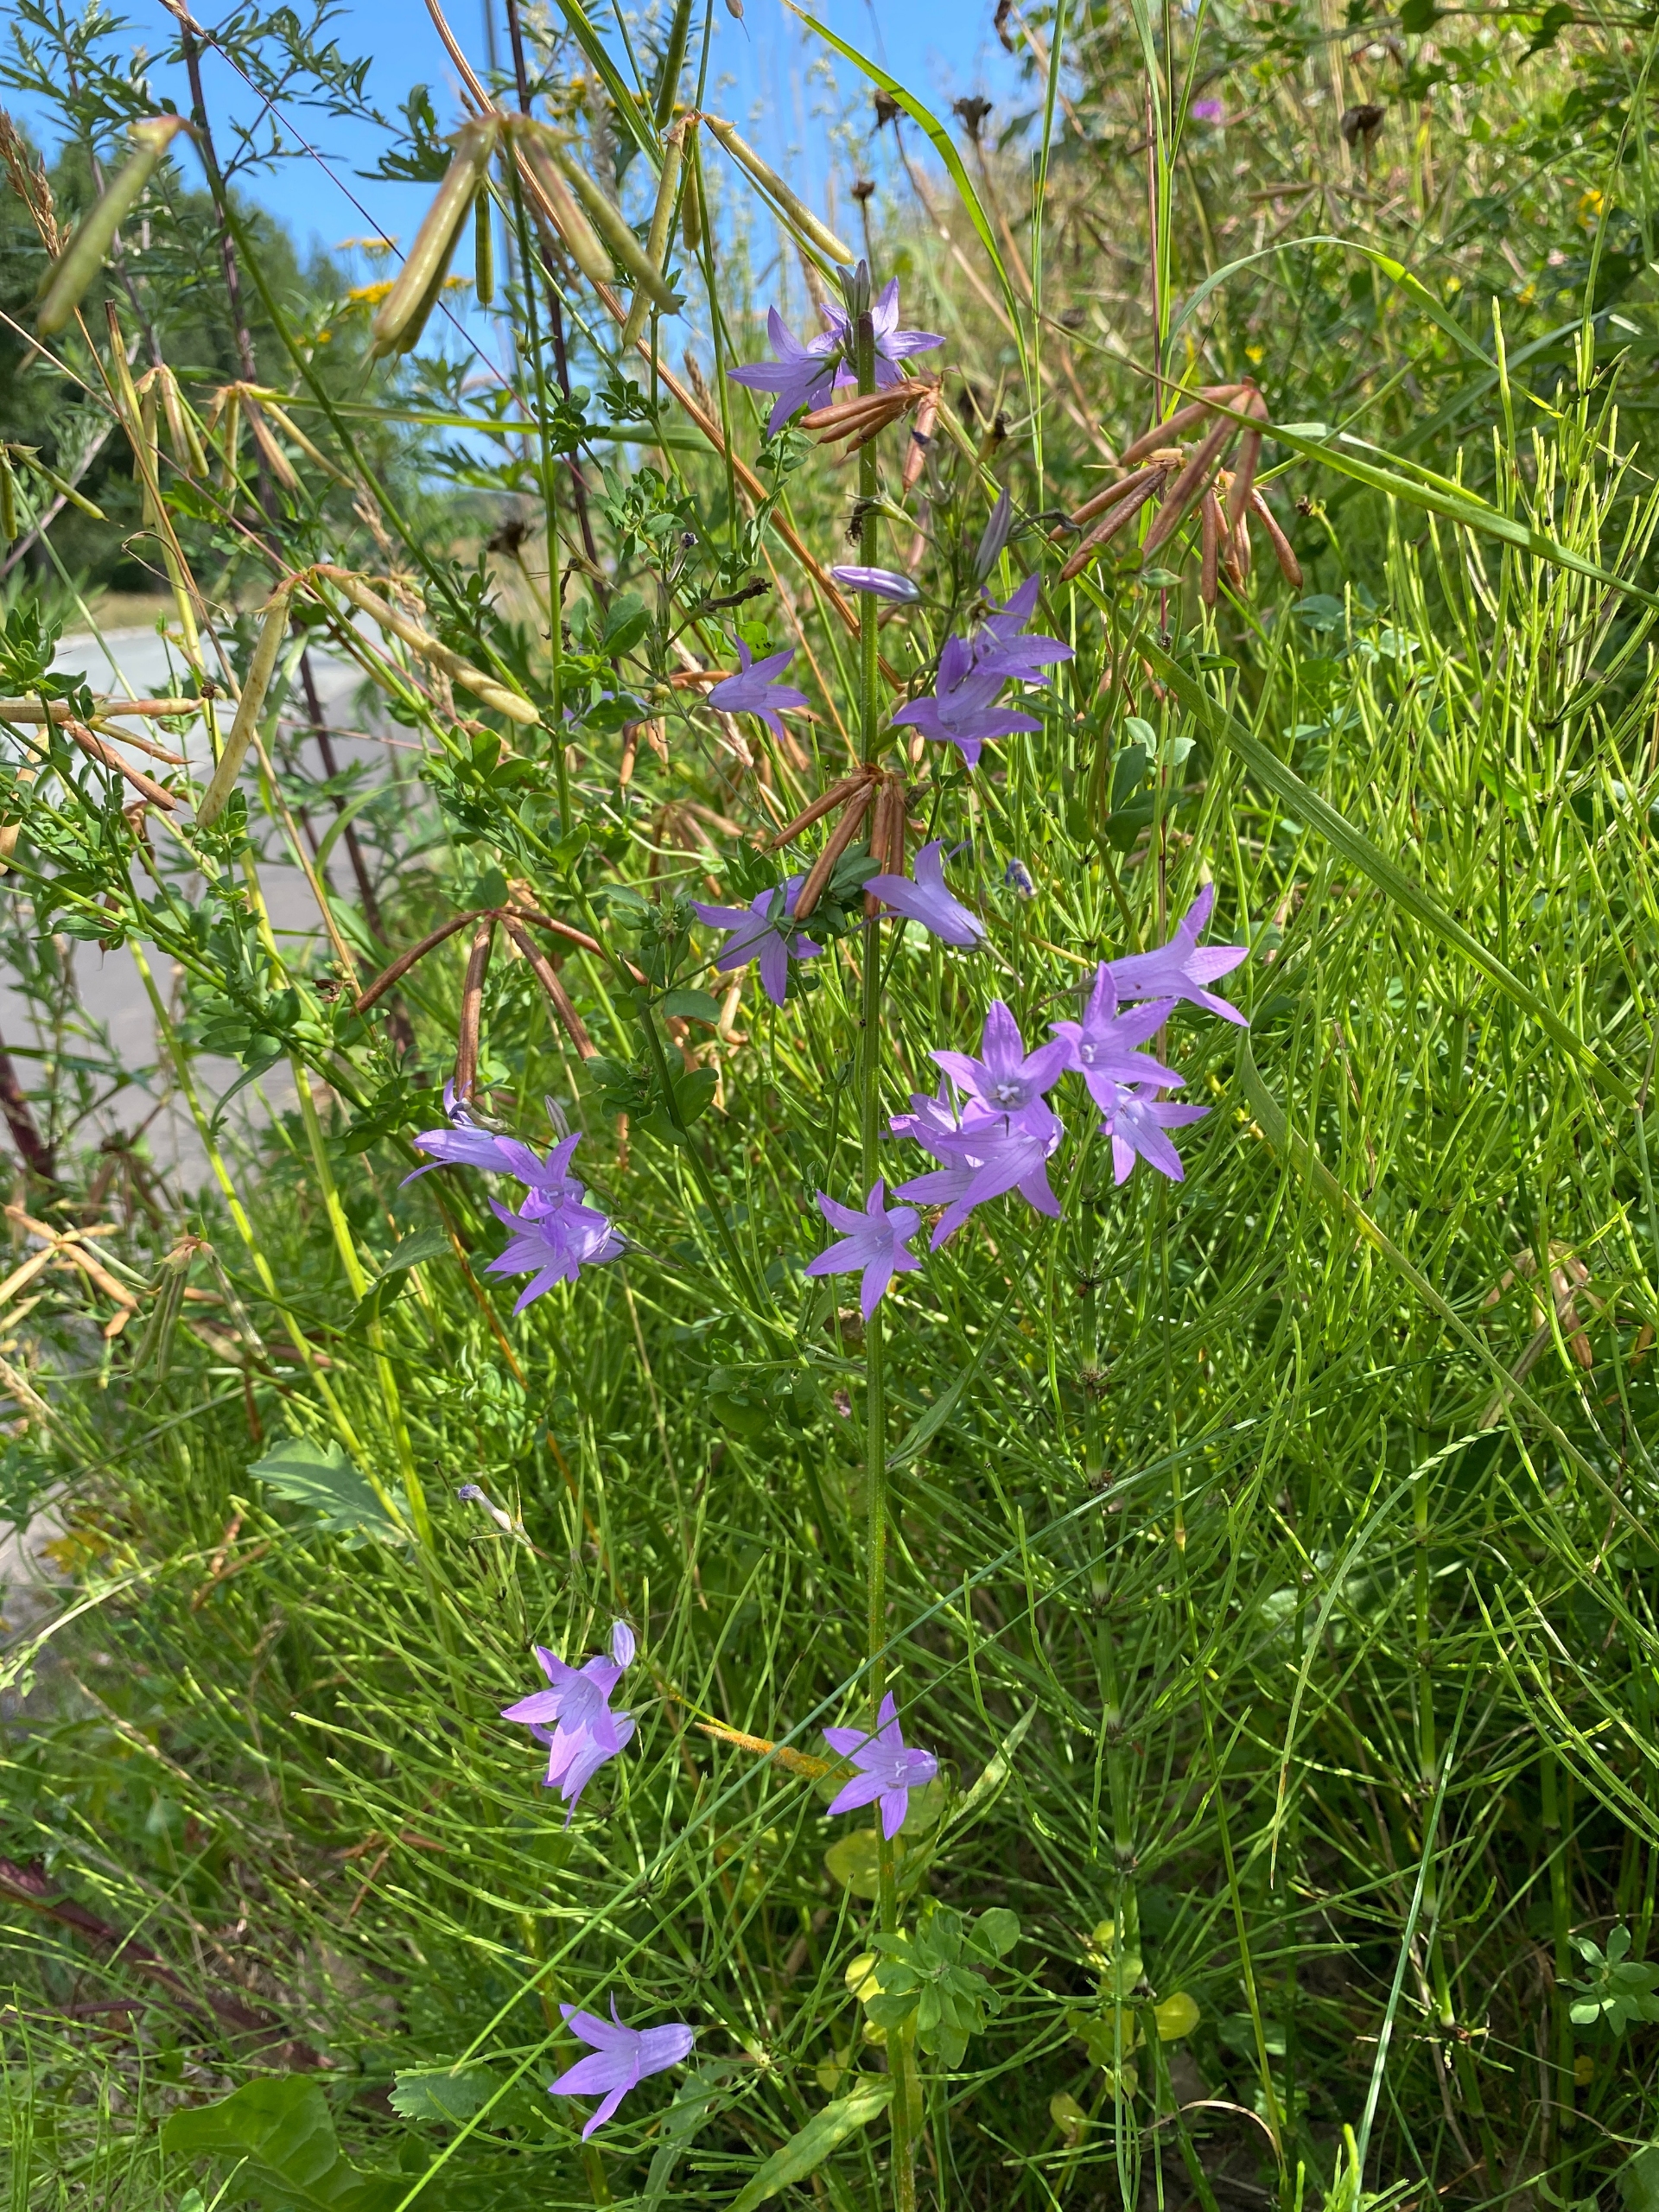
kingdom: Plantae
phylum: Tracheophyta
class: Magnoliopsida
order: Asterales
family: Campanulaceae
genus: Campanula
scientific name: Campanula rapunculus
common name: Rapunsel-klokke
